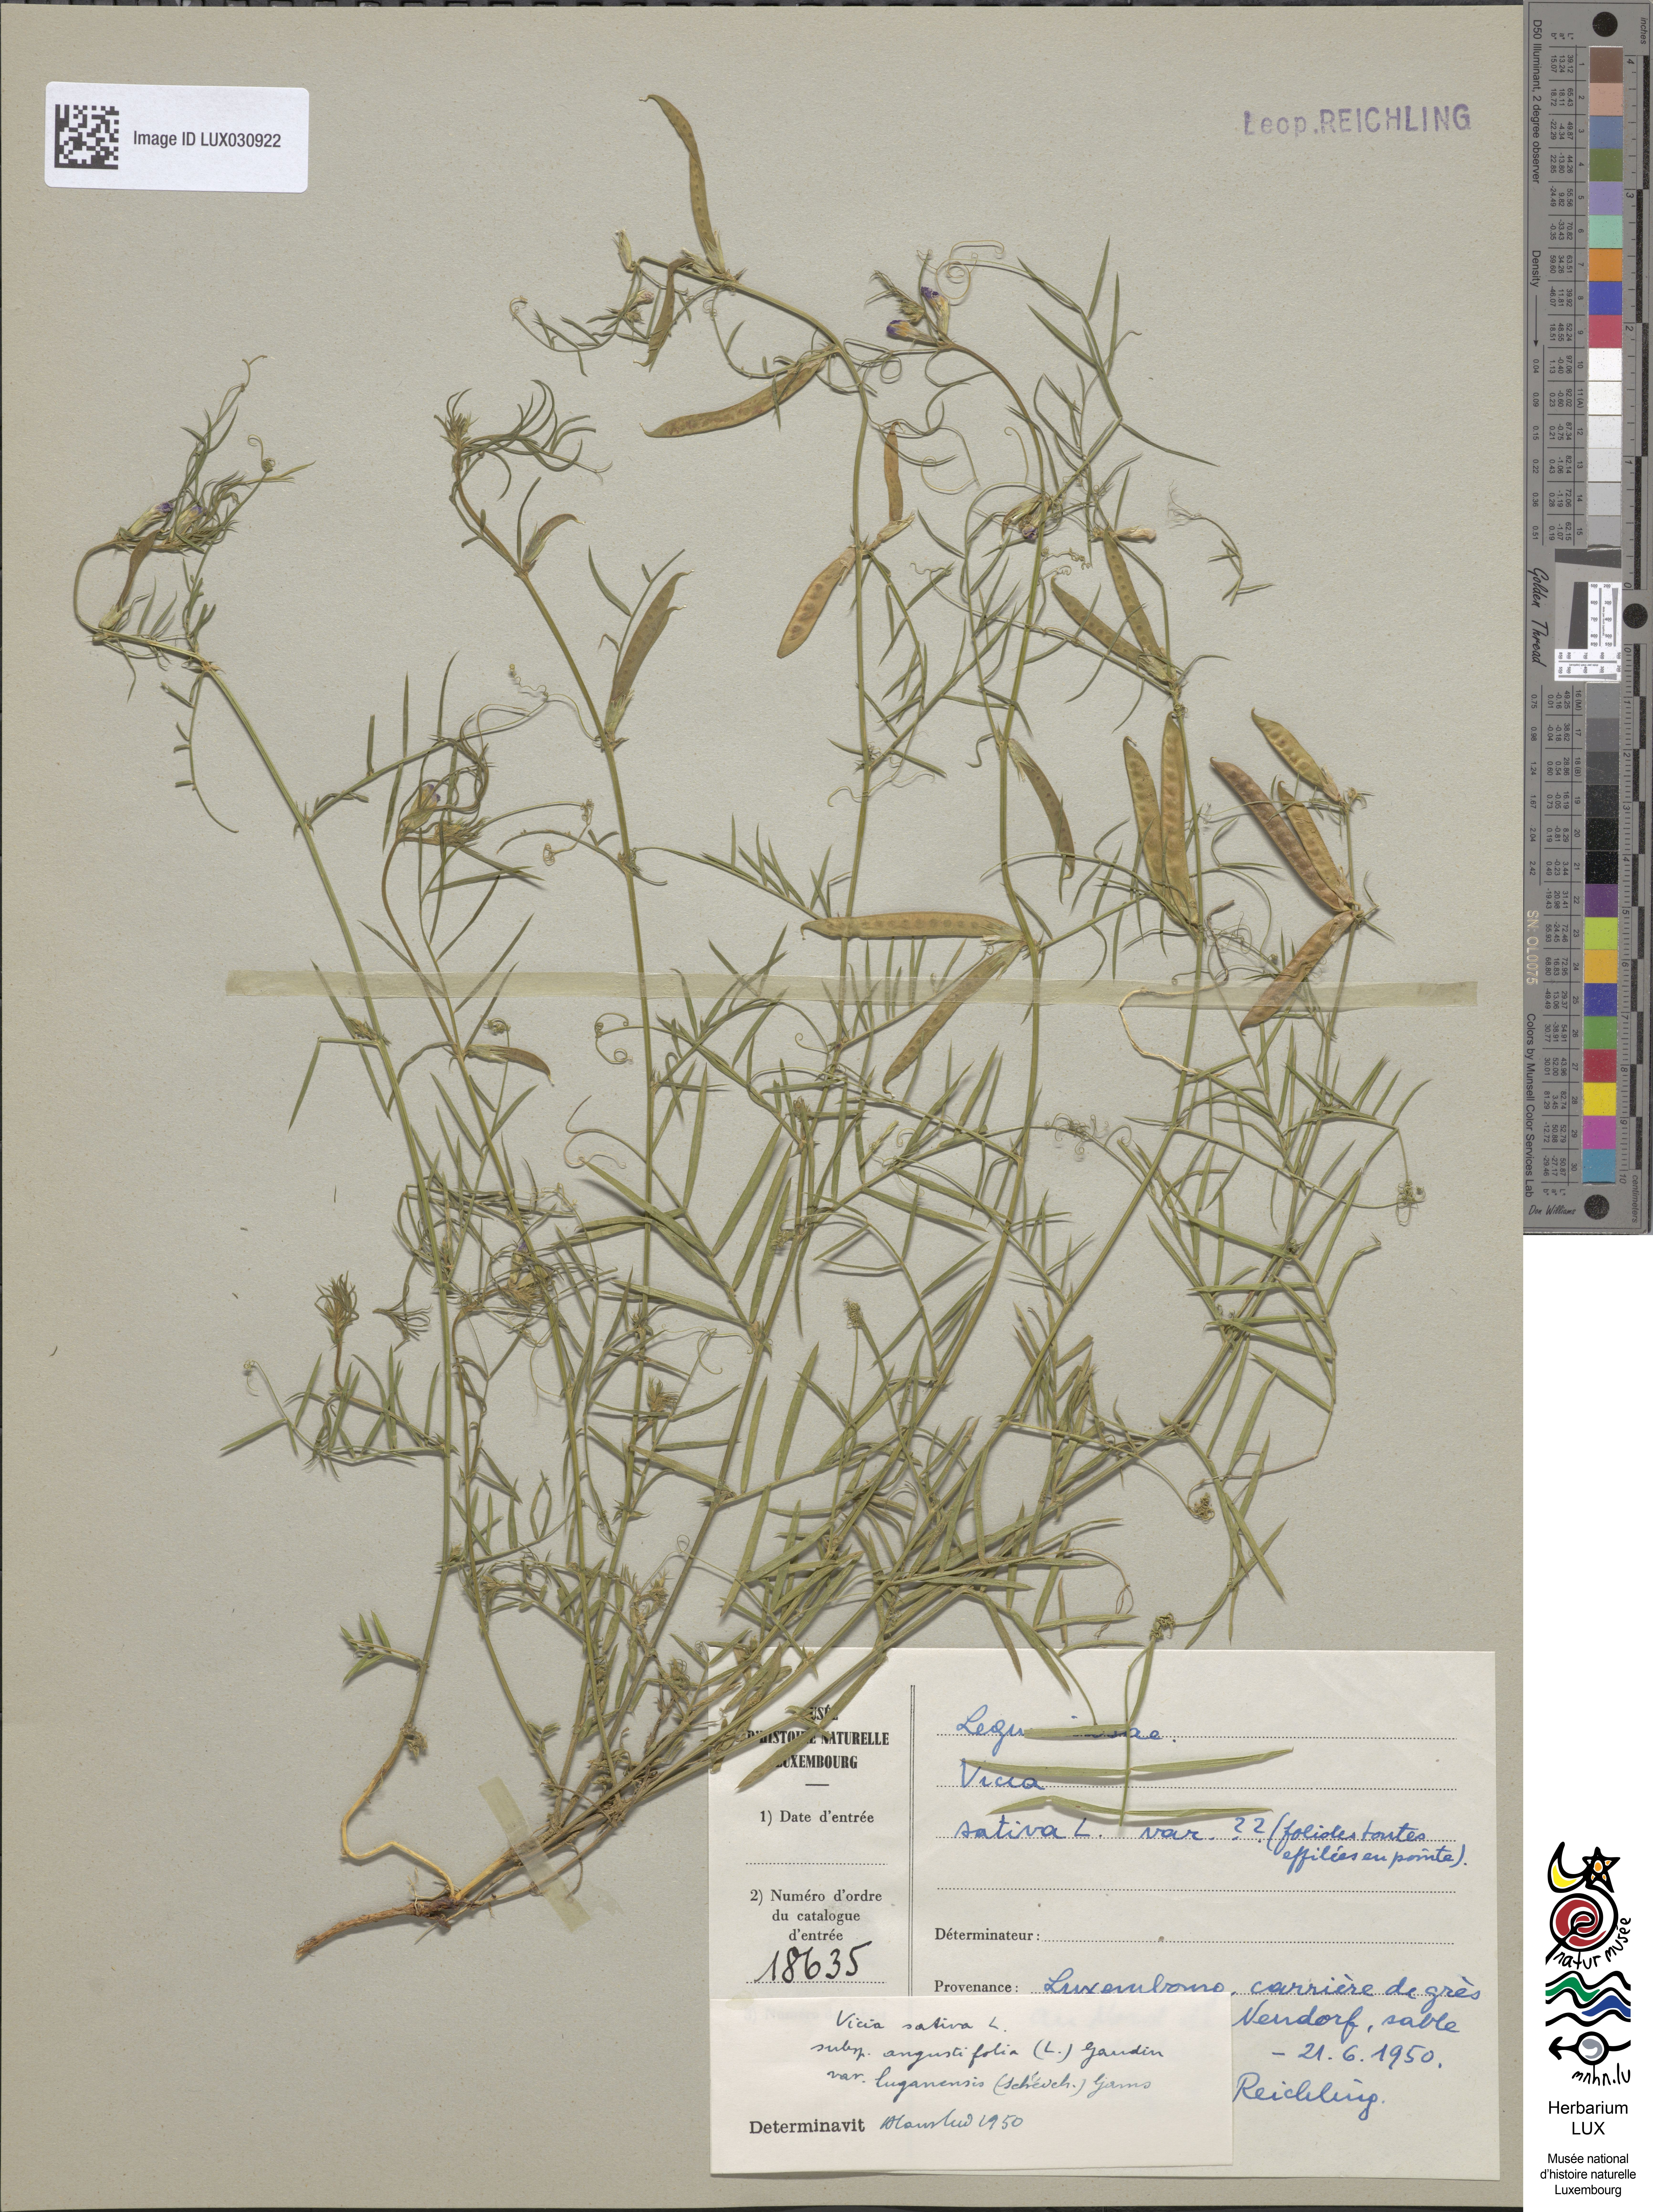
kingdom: Plantae
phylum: Tracheophyta
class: Magnoliopsida
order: Fabales
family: Fabaceae
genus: Vicia
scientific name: Vicia sativa
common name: Garden vetch
